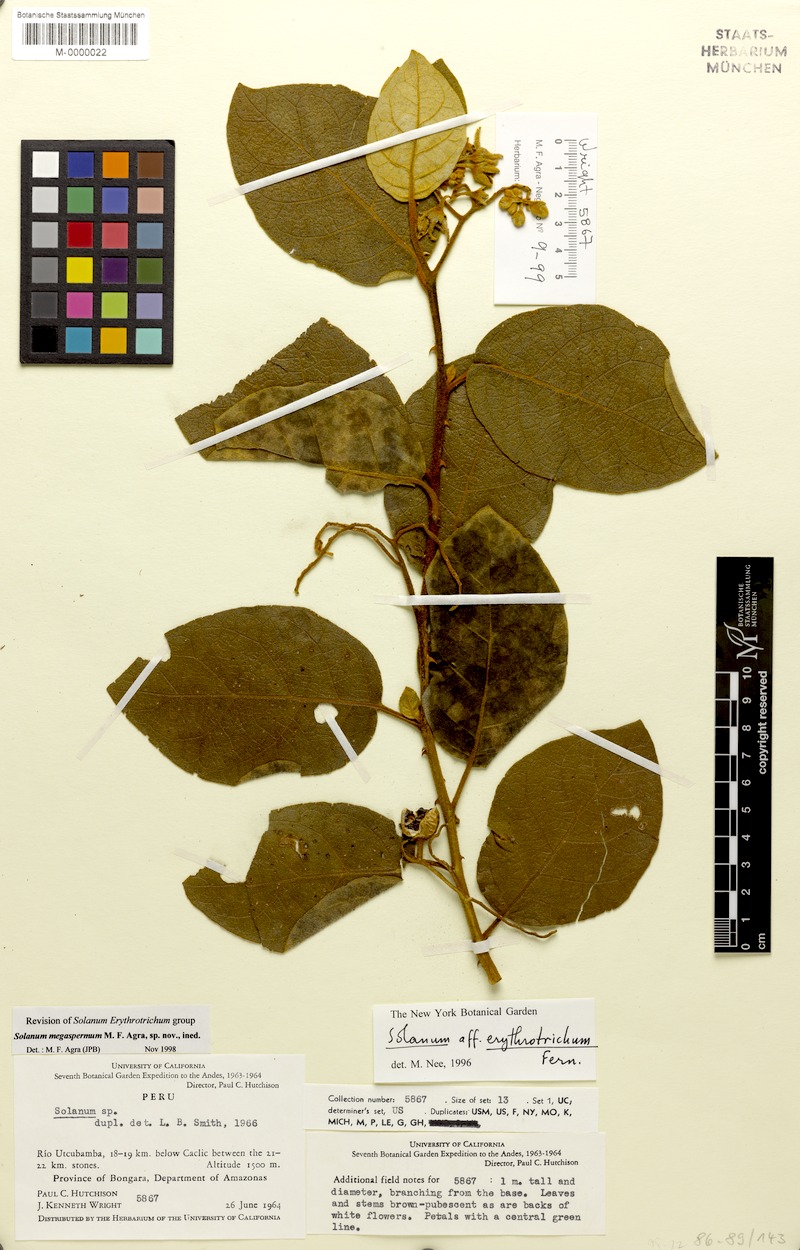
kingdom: Plantae
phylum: Tracheophyta
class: Magnoliopsida
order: Solanales
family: Solanaceae
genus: Solanum
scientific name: Solanum megaspermum
